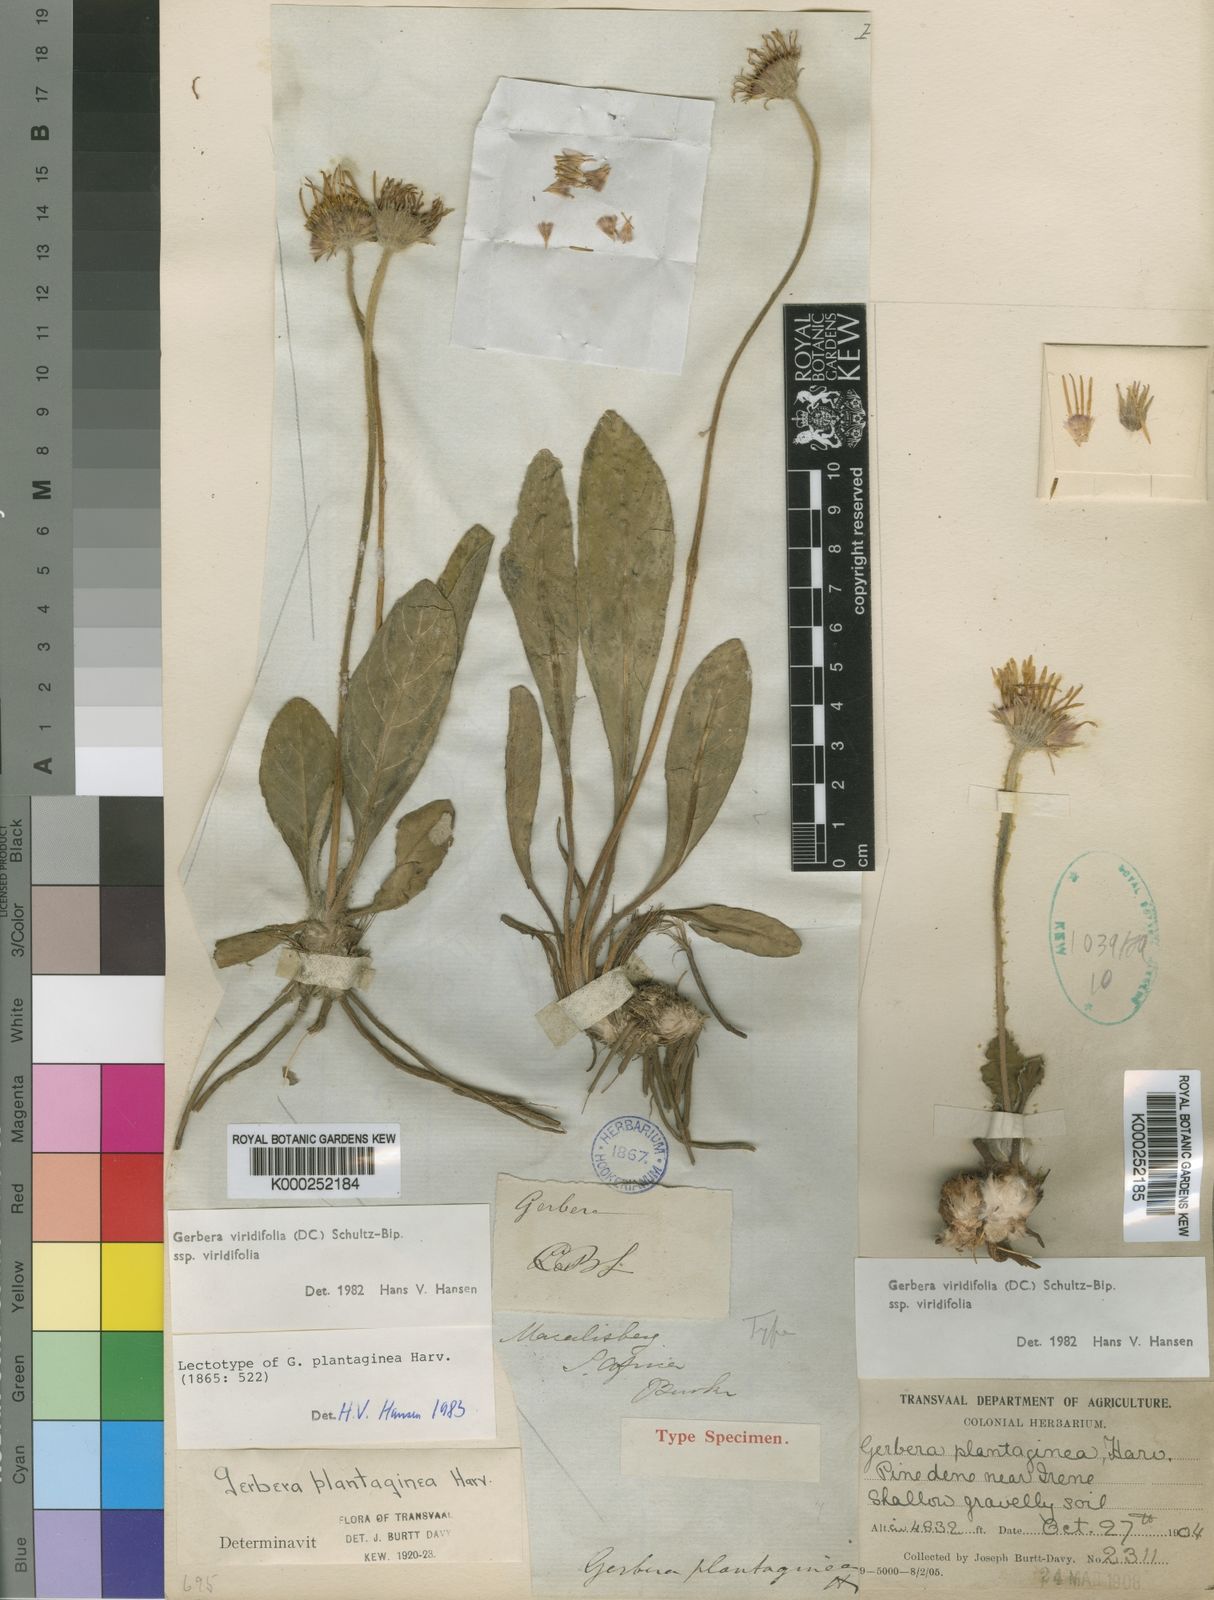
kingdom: Plantae
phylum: Tracheophyta
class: Magnoliopsida
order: Asterales
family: Asteraceae
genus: Gerbera
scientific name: Gerbera viridifolia
